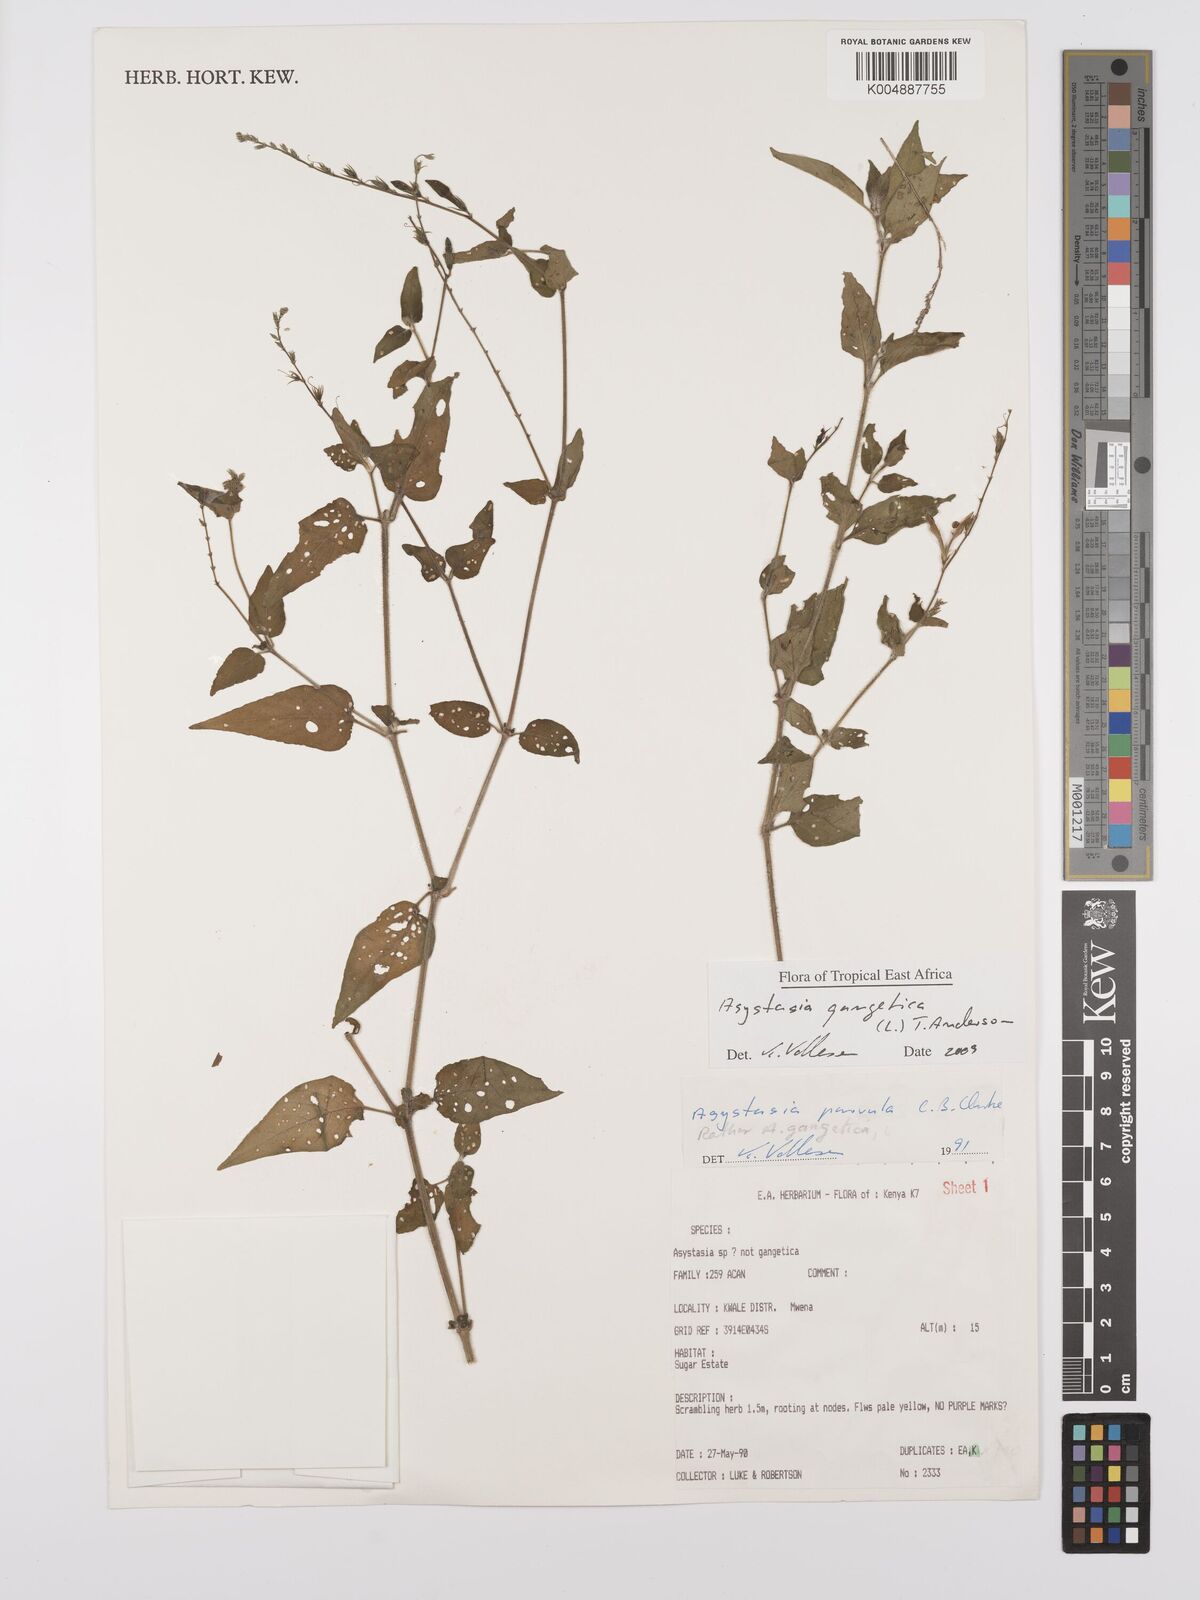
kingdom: Plantae
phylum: Tracheophyta
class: Magnoliopsida
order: Lamiales
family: Acanthaceae
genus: Asystasia
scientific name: Asystasia gangetica
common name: Chinese violet
